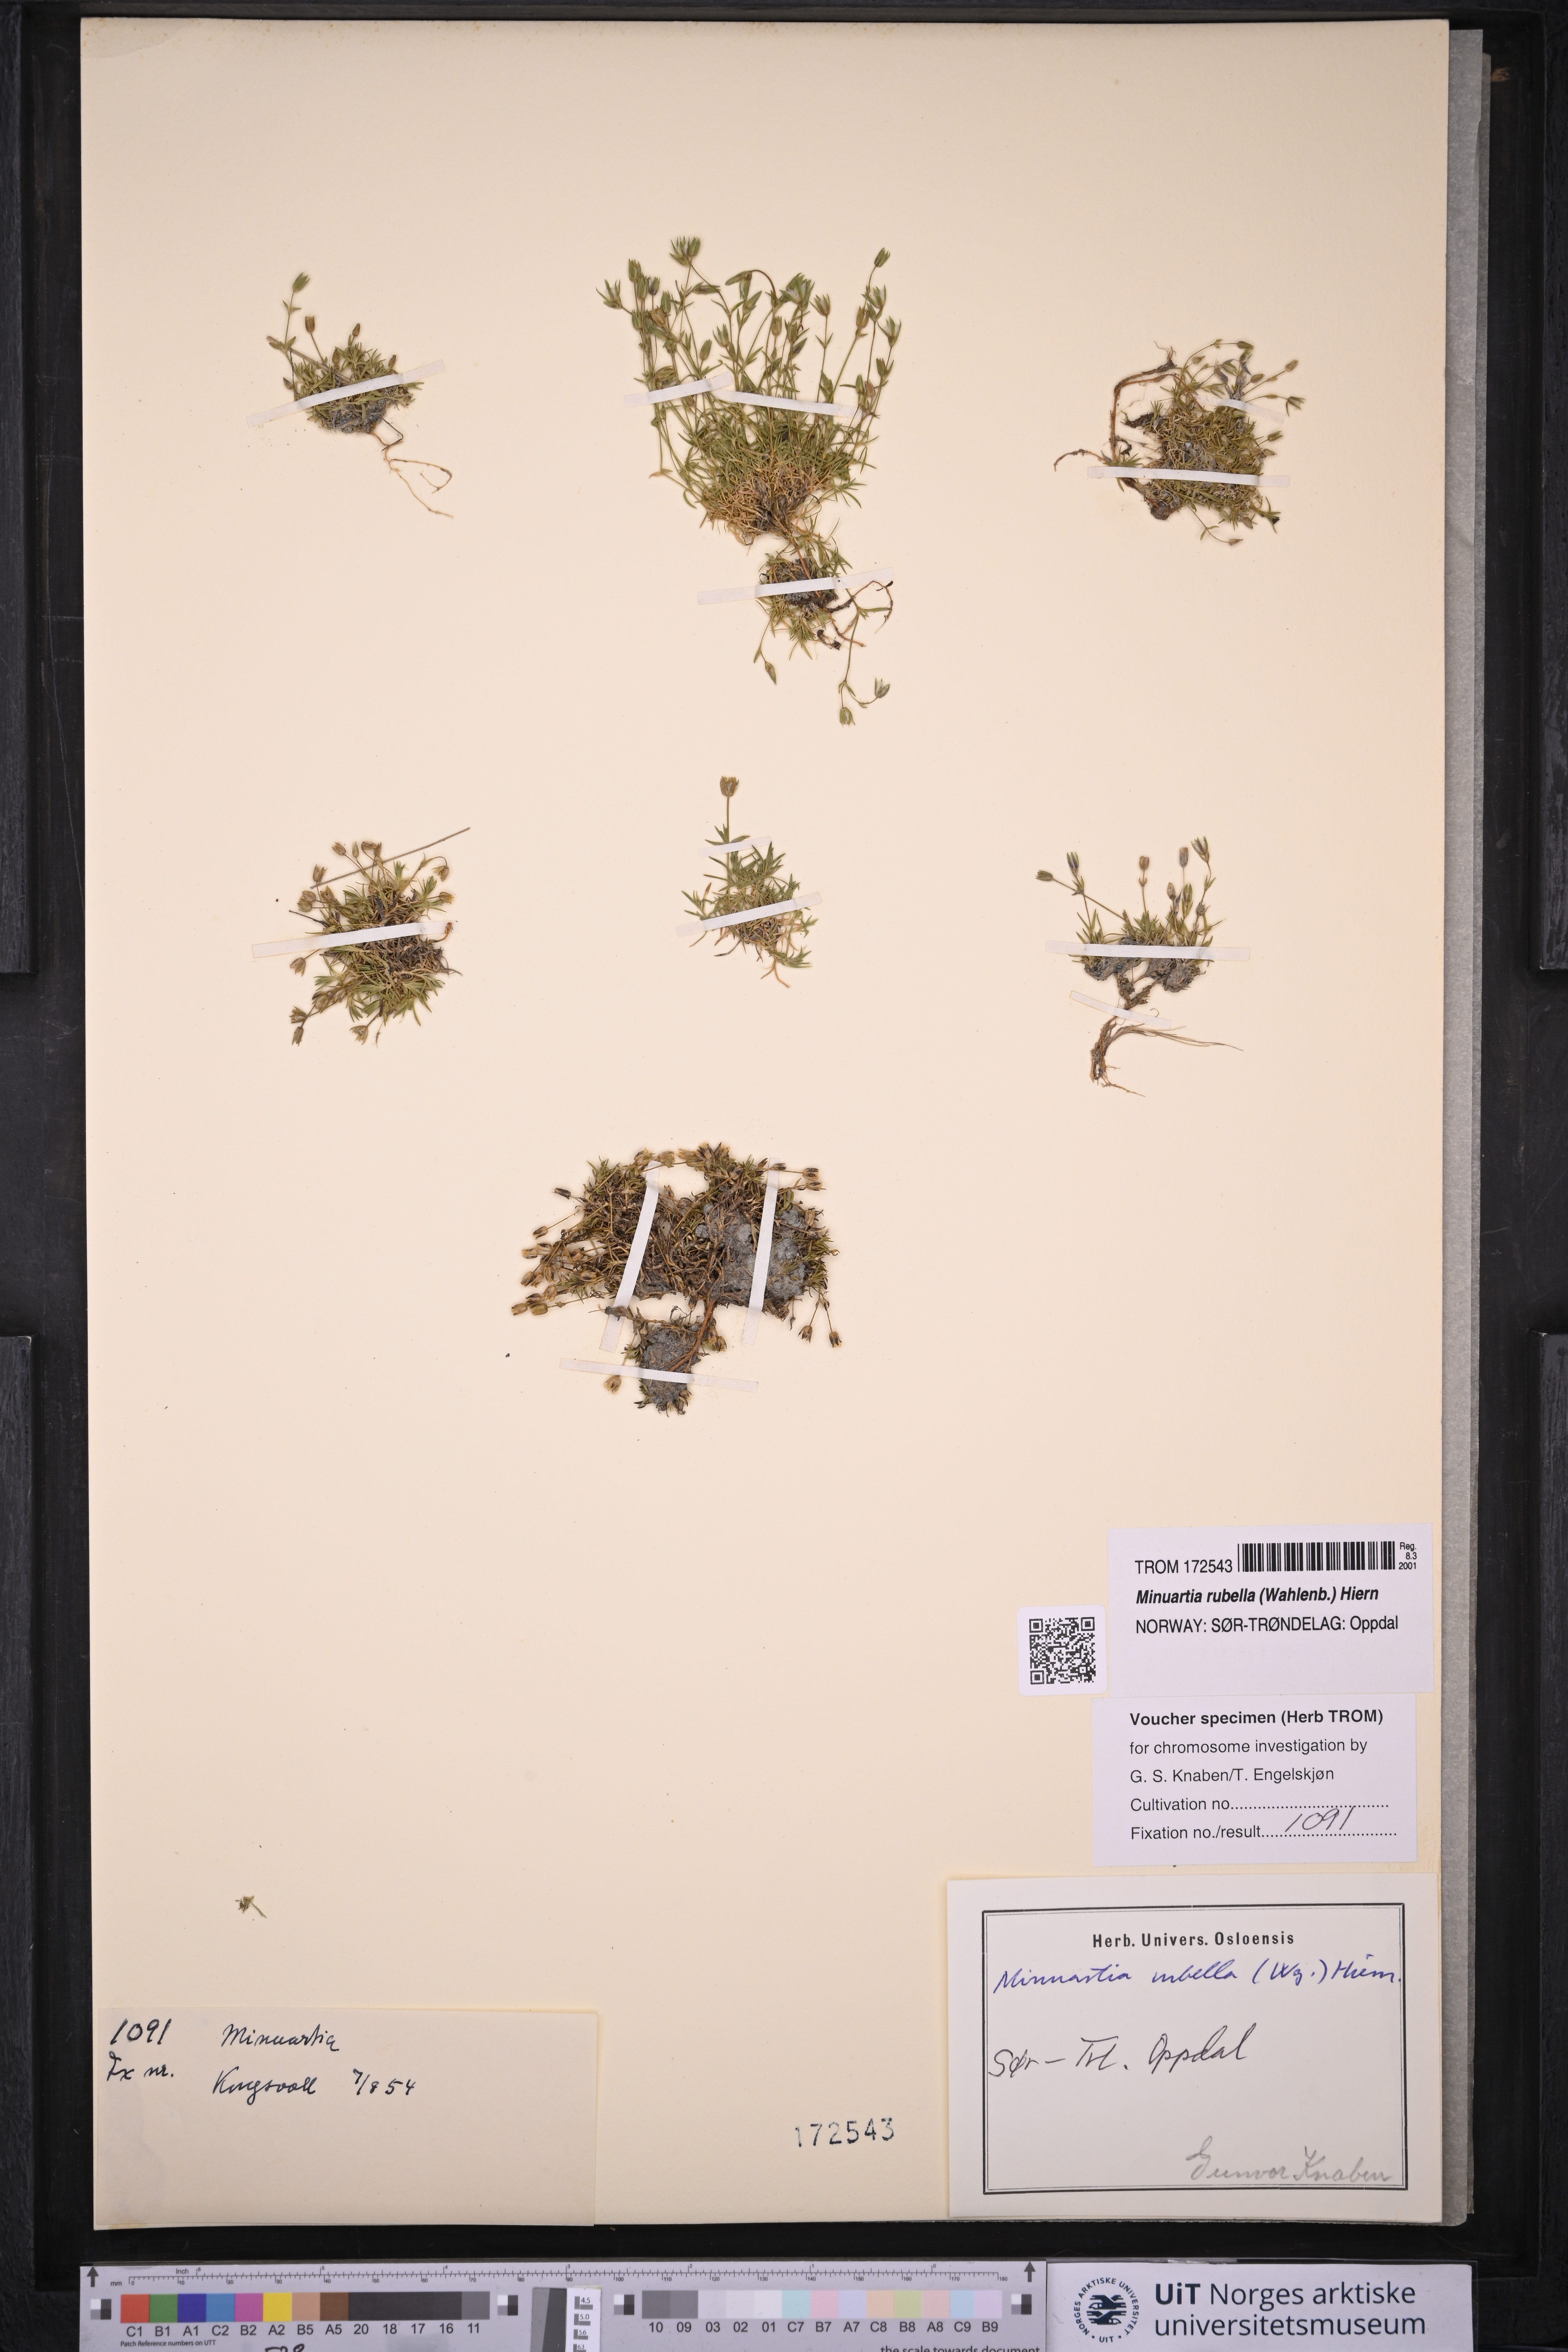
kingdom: Plantae
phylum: Tracheophyta
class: Magnoliopsida
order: Caryophyllales
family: Caryophyllaceae
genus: Sabulina
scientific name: Sabulina rubella
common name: Beautiful sandwort
